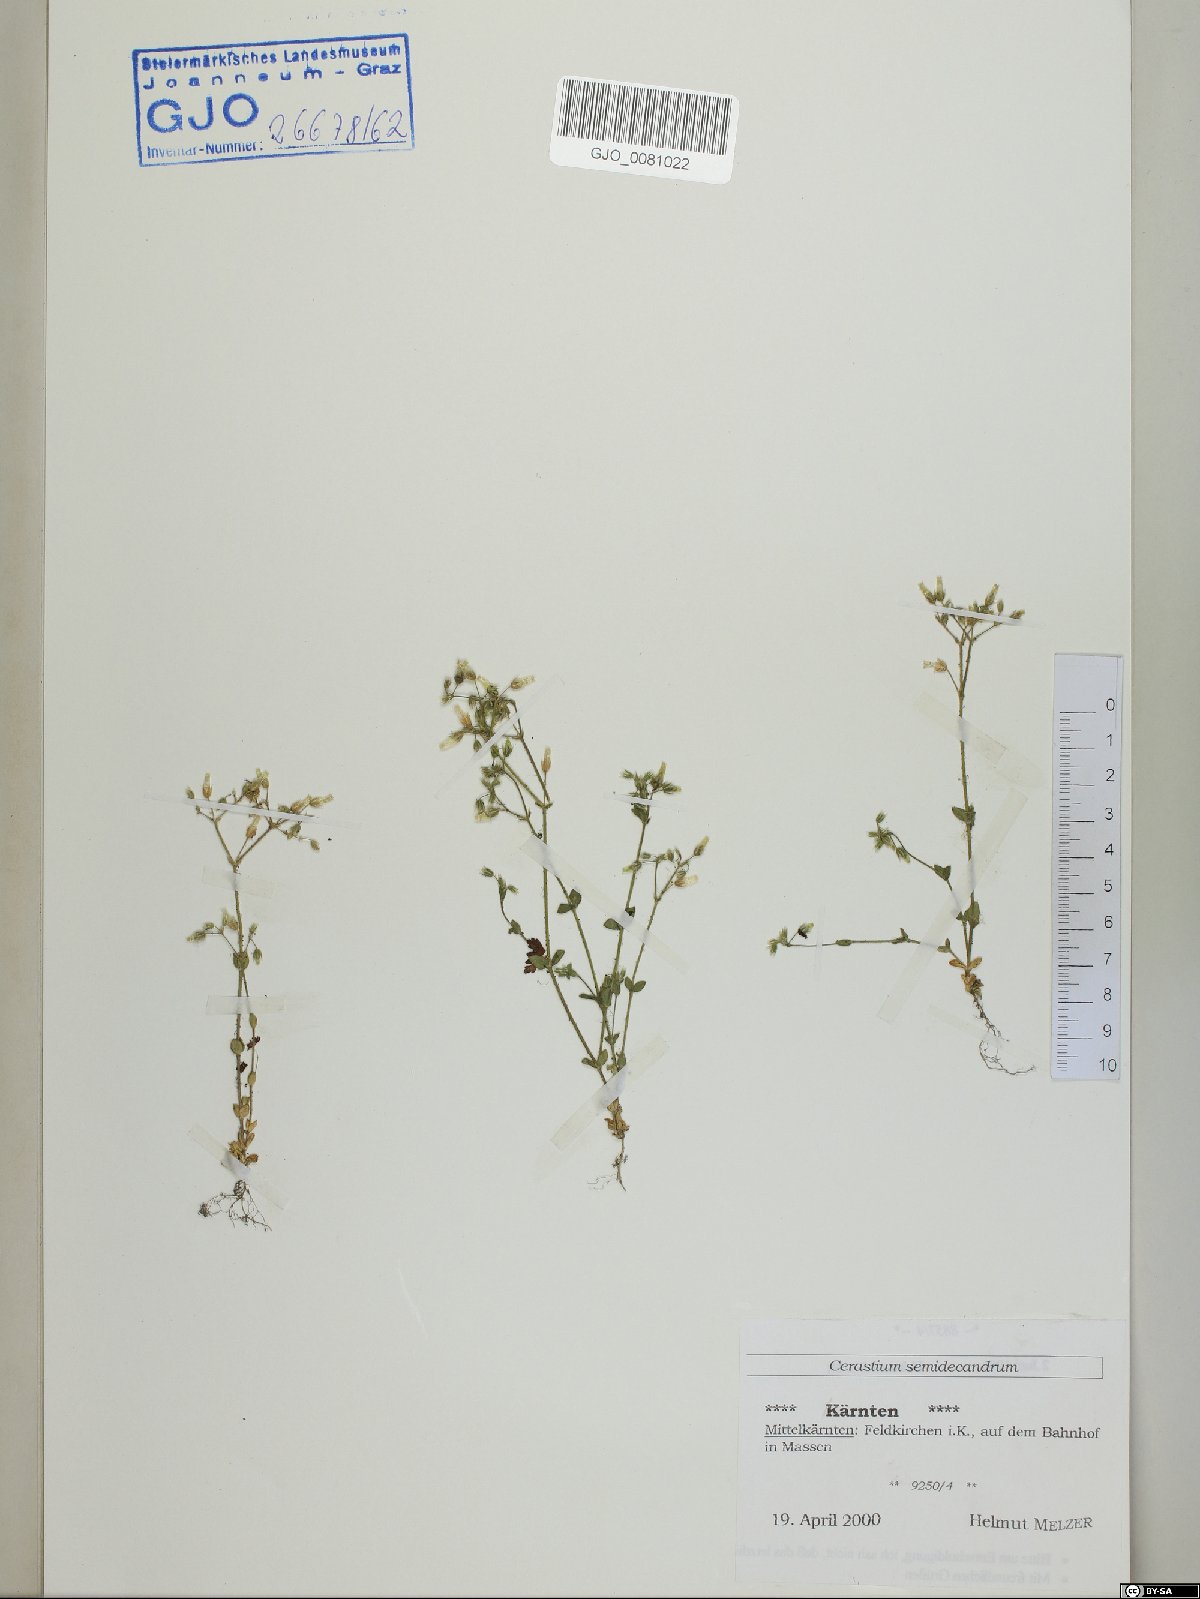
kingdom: Plantae
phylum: Tracheophyta
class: Magnoliopsida
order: Caryophyllales
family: Caryophyllaceae
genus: Cerastium
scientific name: Cerastium semidecandrum
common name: Little mouse-ear
